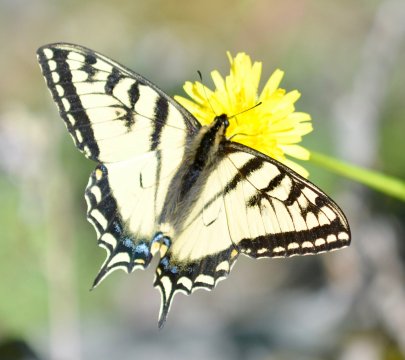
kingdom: Animalia
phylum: Arthropoda
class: Insecta
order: Lepidoptera
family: Papilionidae
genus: Pterourus
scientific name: Pterourus canadensis
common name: Canadian Tiger Swallowtail
